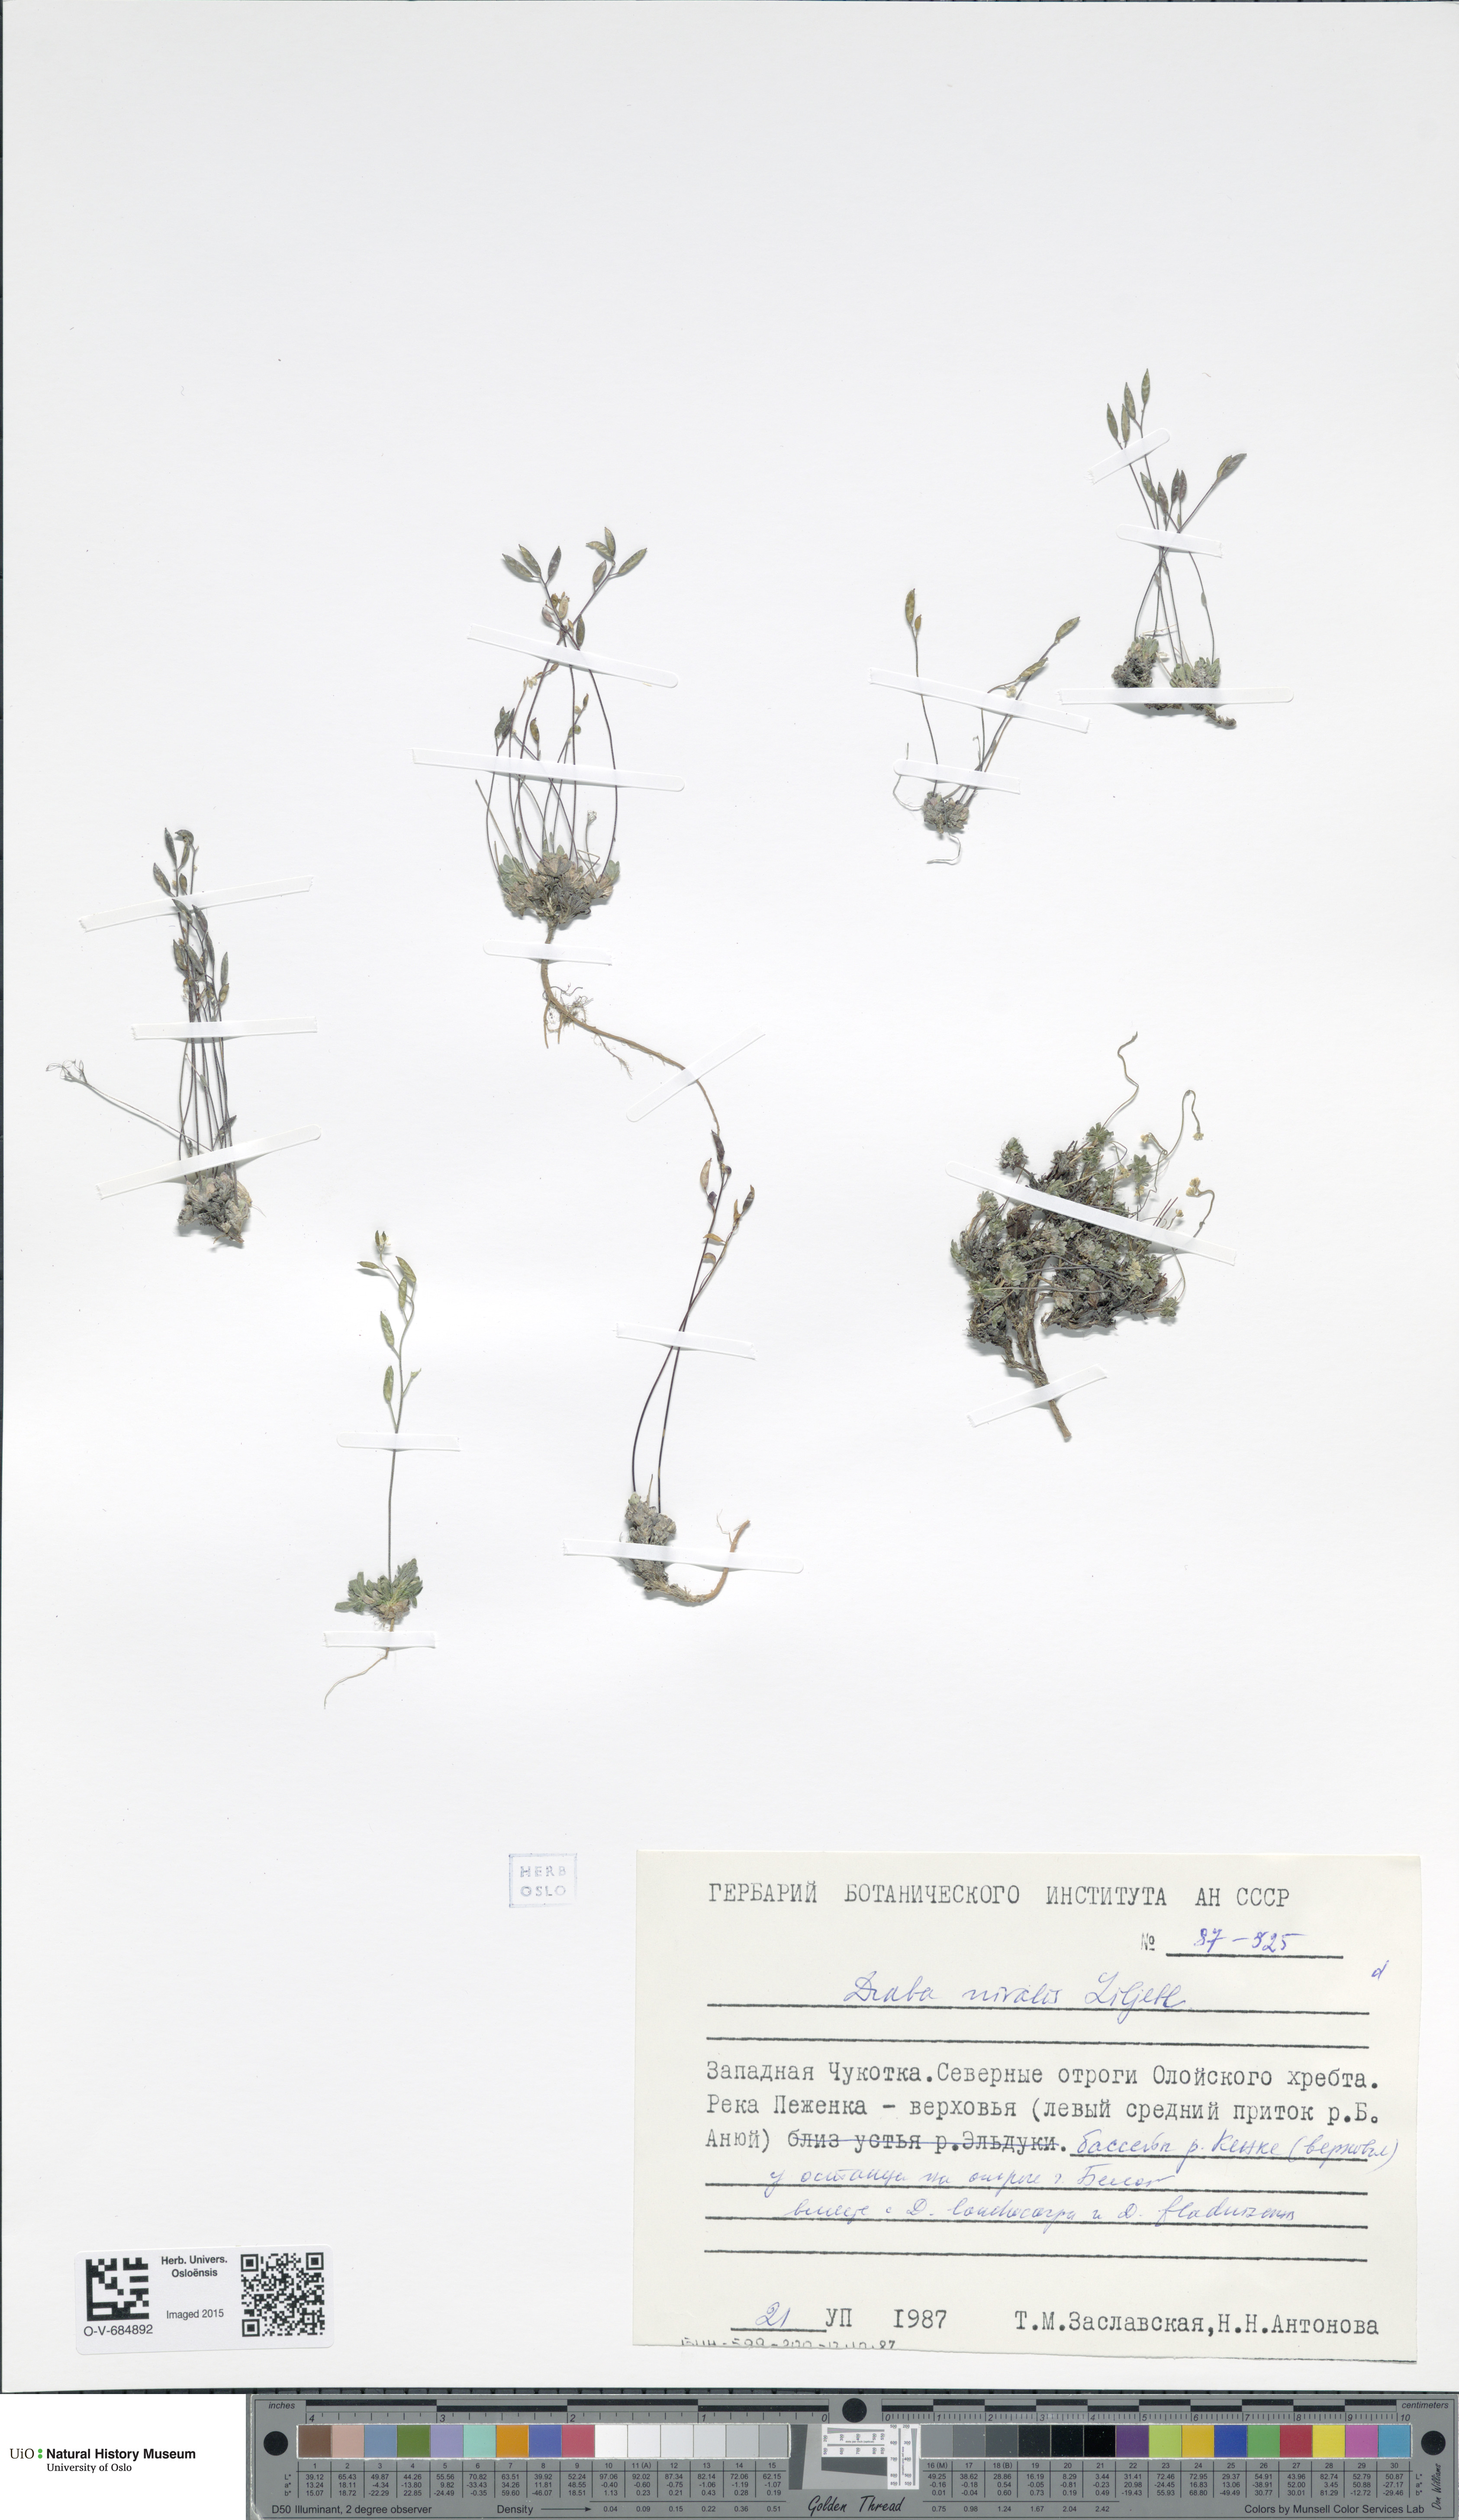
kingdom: Plantae
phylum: Tracheophyta
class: Magnoliopsida
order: Brassicales
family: Brassicaceae
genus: Draba
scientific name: Draba nivalis
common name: Snow draba
